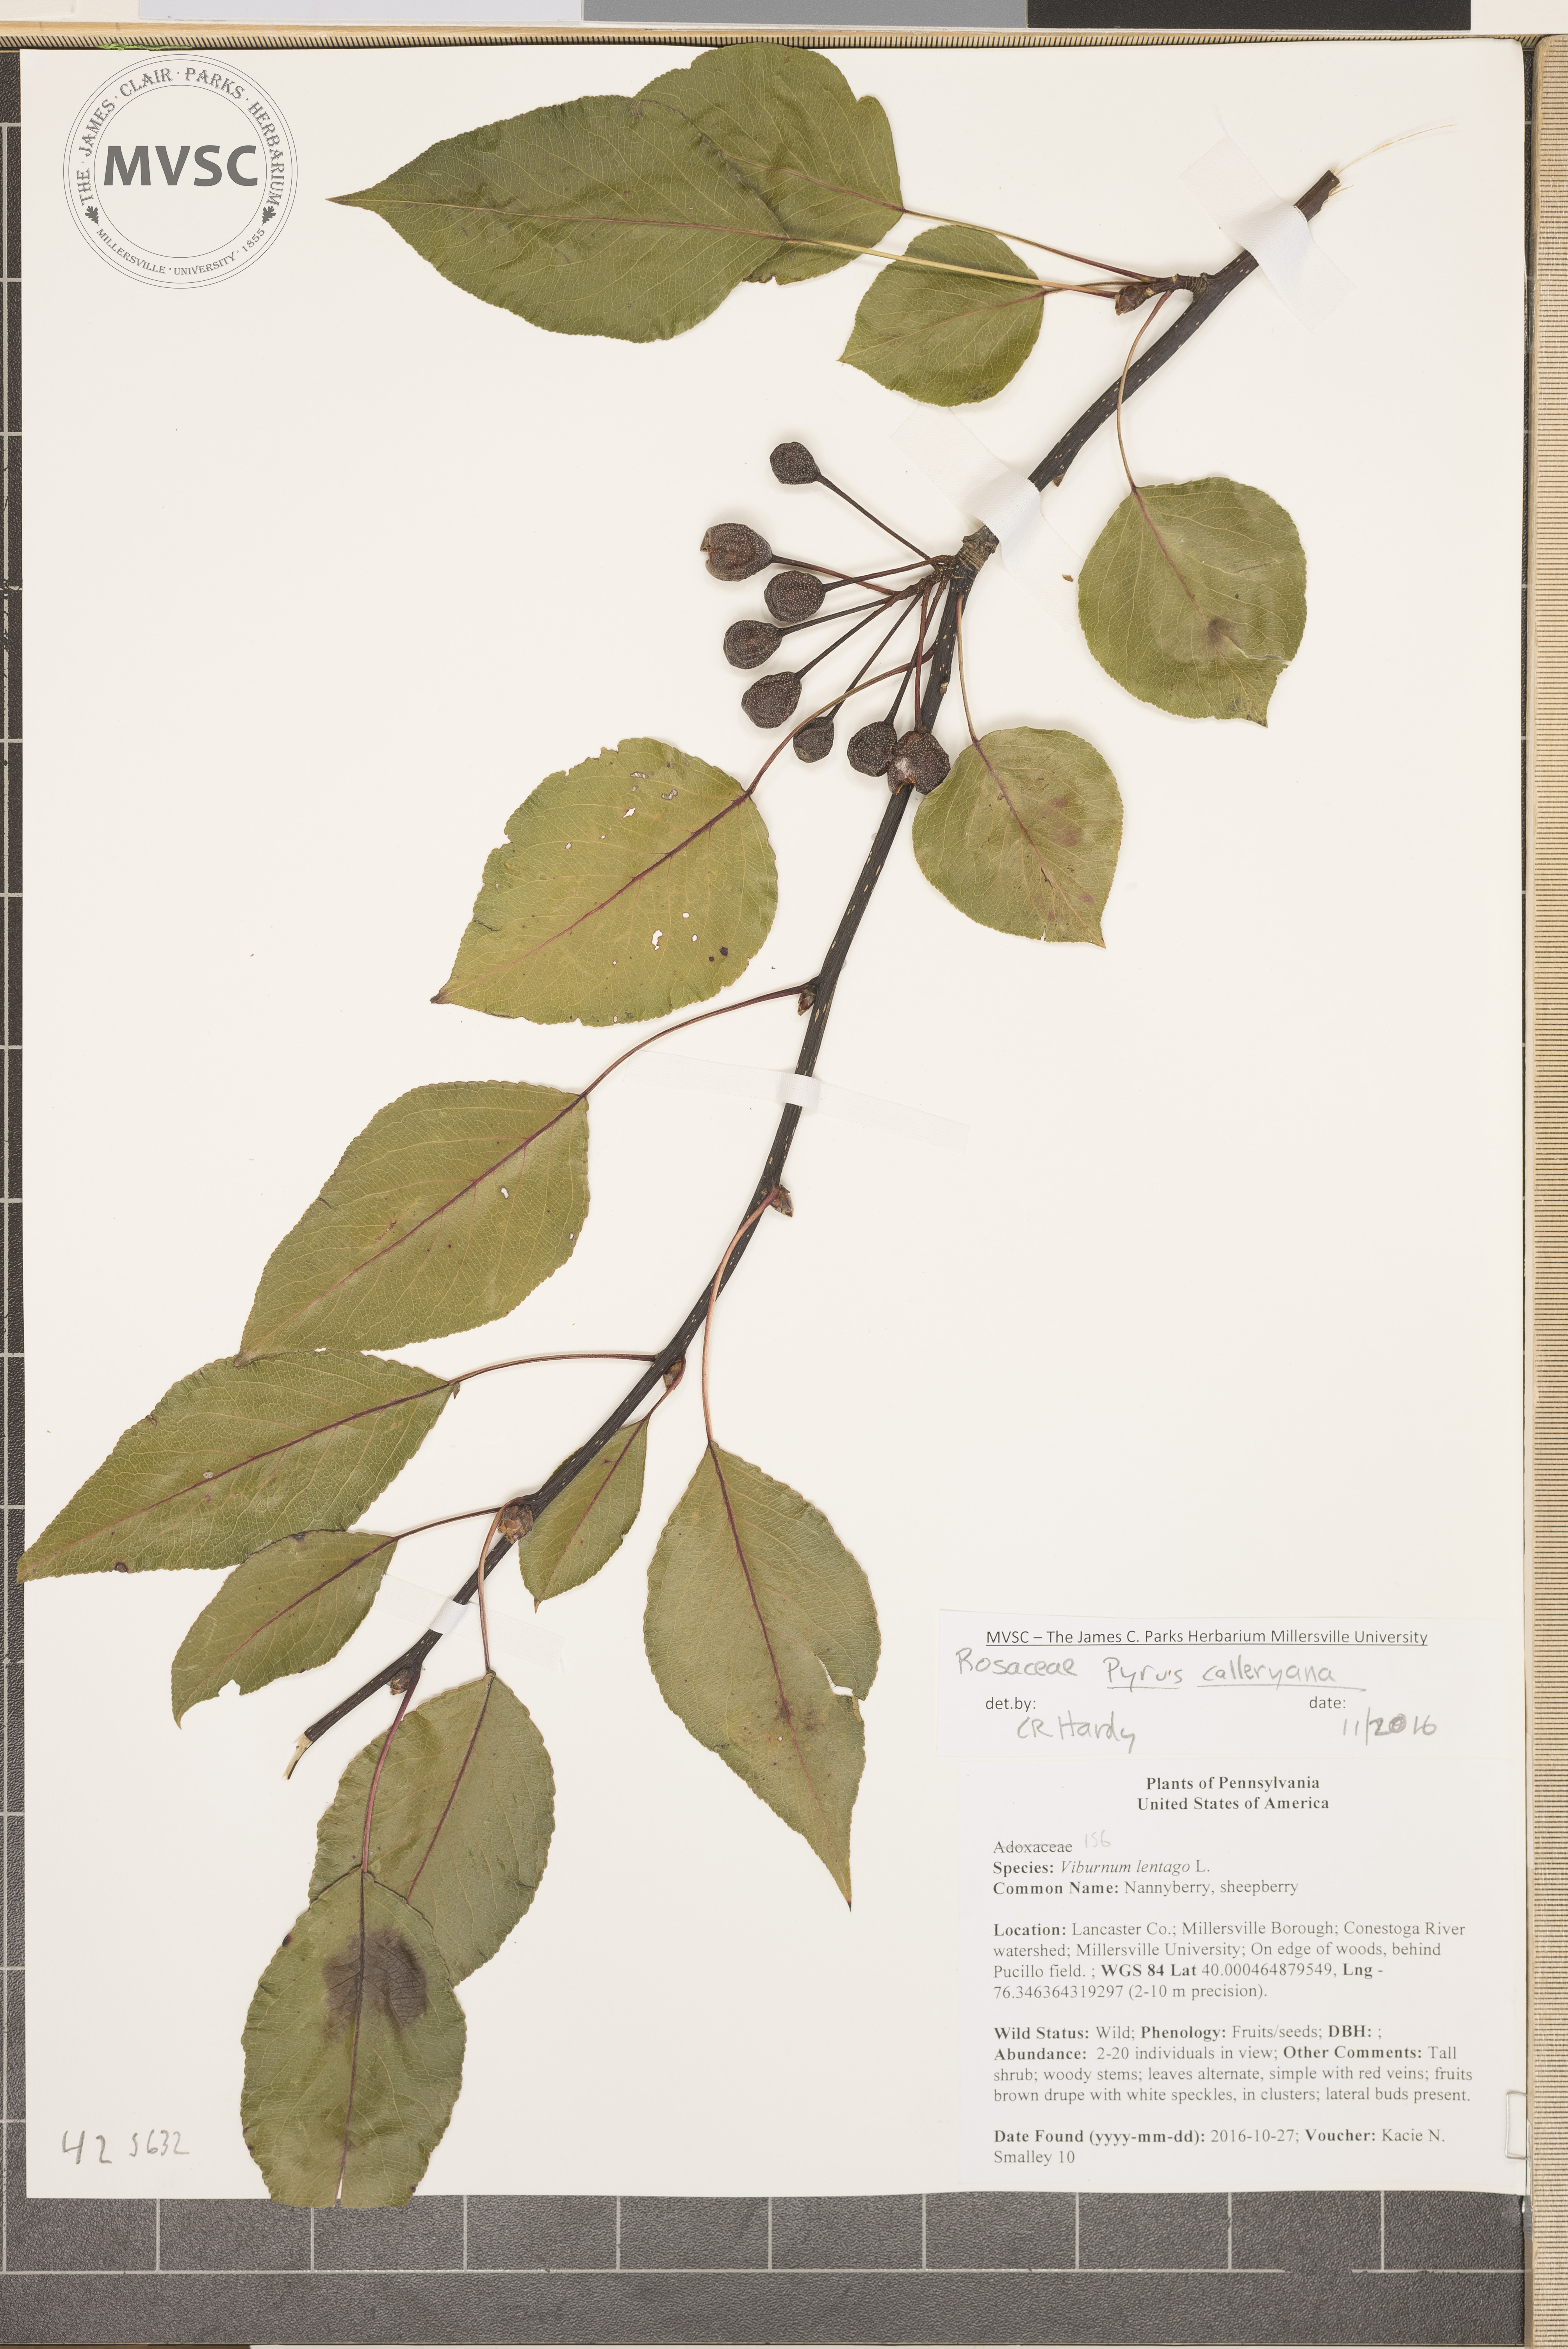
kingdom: Plantae
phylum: Tracheophyta
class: Magnoliopsida
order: Rosales
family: Rosaceae
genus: Pyrus
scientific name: Pyrus calleryana
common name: Bradford Pear
